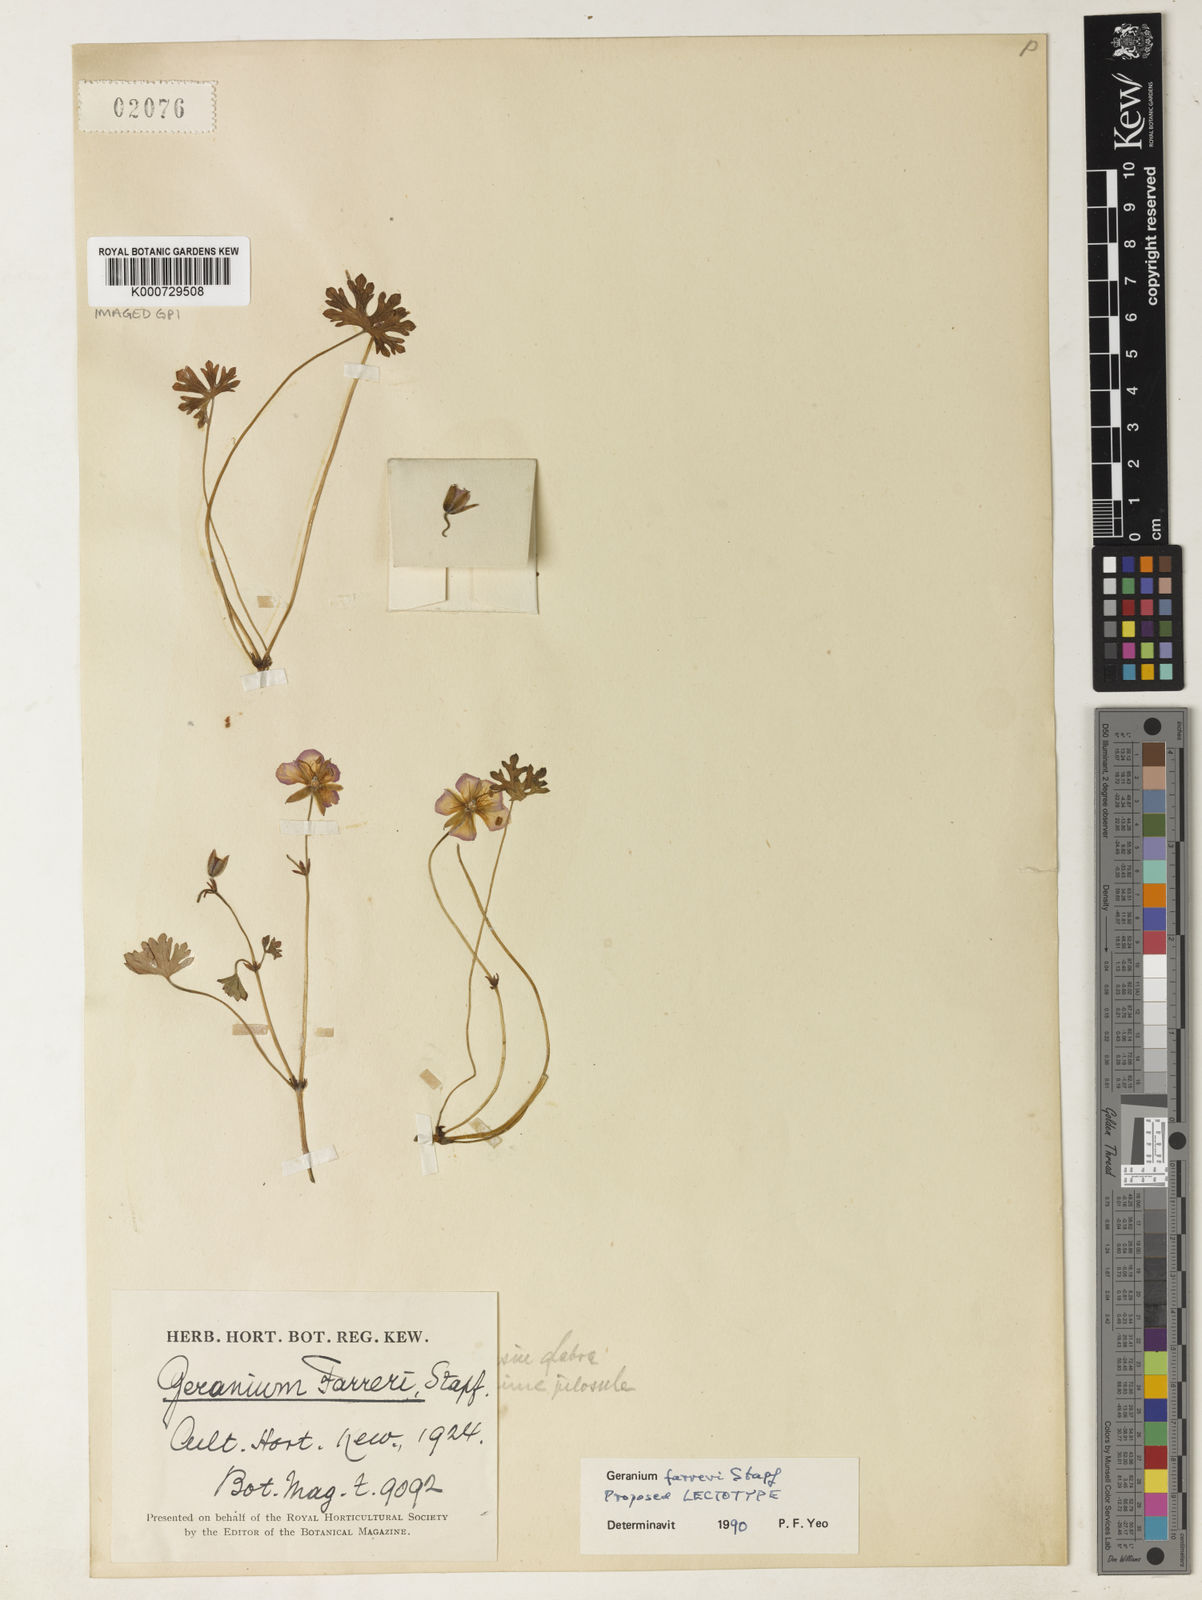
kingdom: Plantae
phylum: Tracheophyta
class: Magnoliopsida
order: Geraniales
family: Geraniaceae
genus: Geranium
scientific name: Geranium farreri
